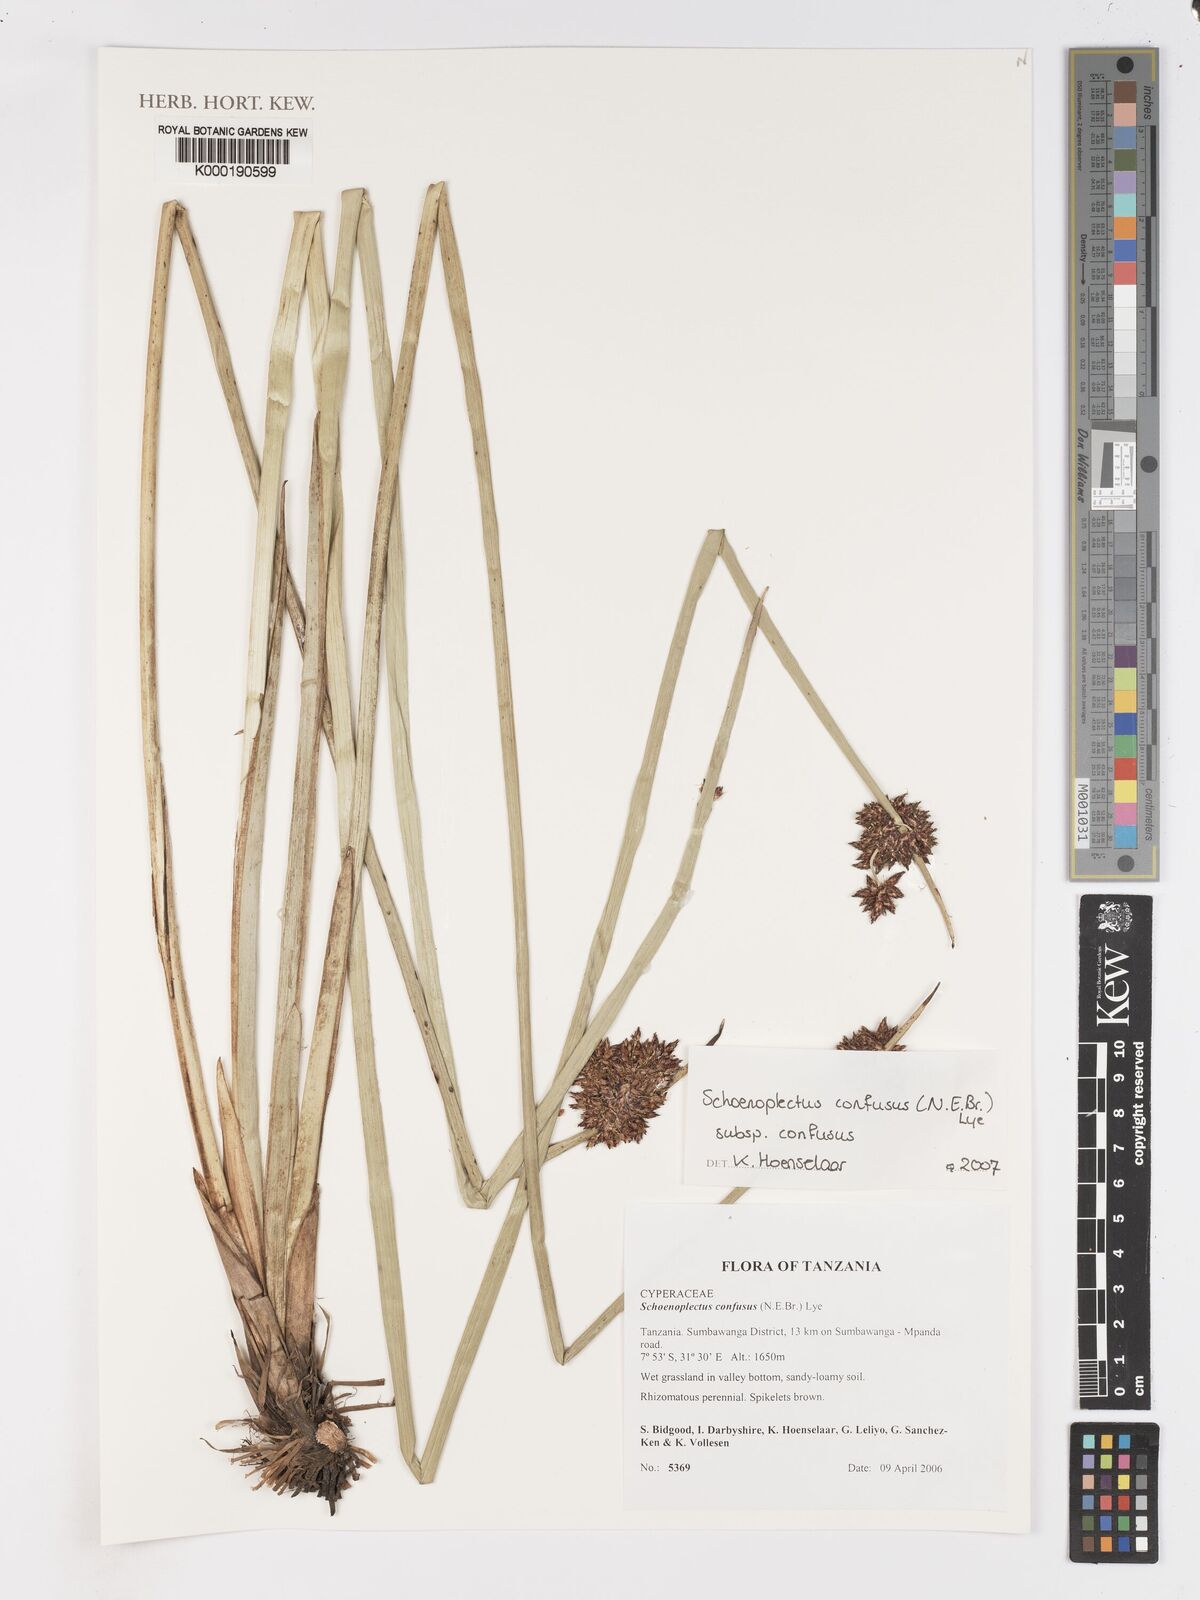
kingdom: Plantae
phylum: Tracheophyta
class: Liliopsida
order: Poales
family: Cyperaceae
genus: Schoenoplectiella
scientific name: Schoenoplectiella confusa
